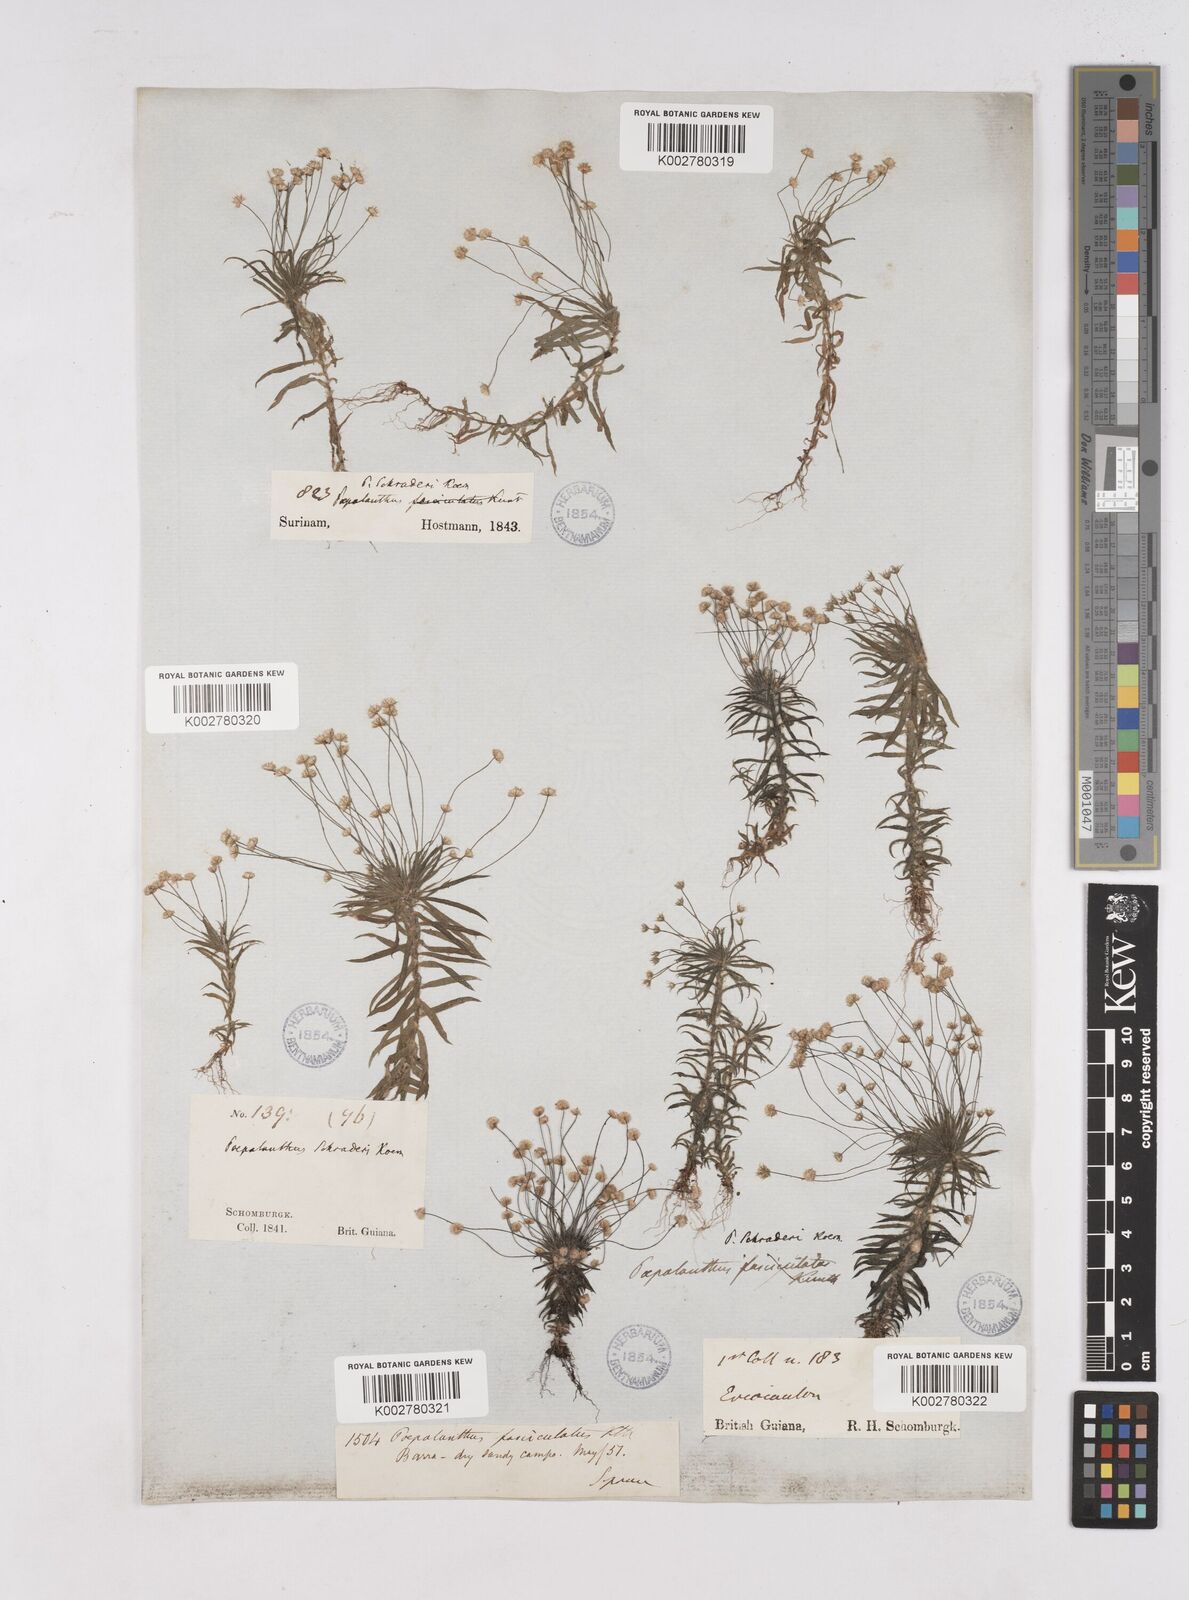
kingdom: Plantae
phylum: Tracheophyta
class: Liliopsida
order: Poales
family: Eriocaulaceae
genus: Paepalanthus
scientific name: Paepalanthus bifidus
